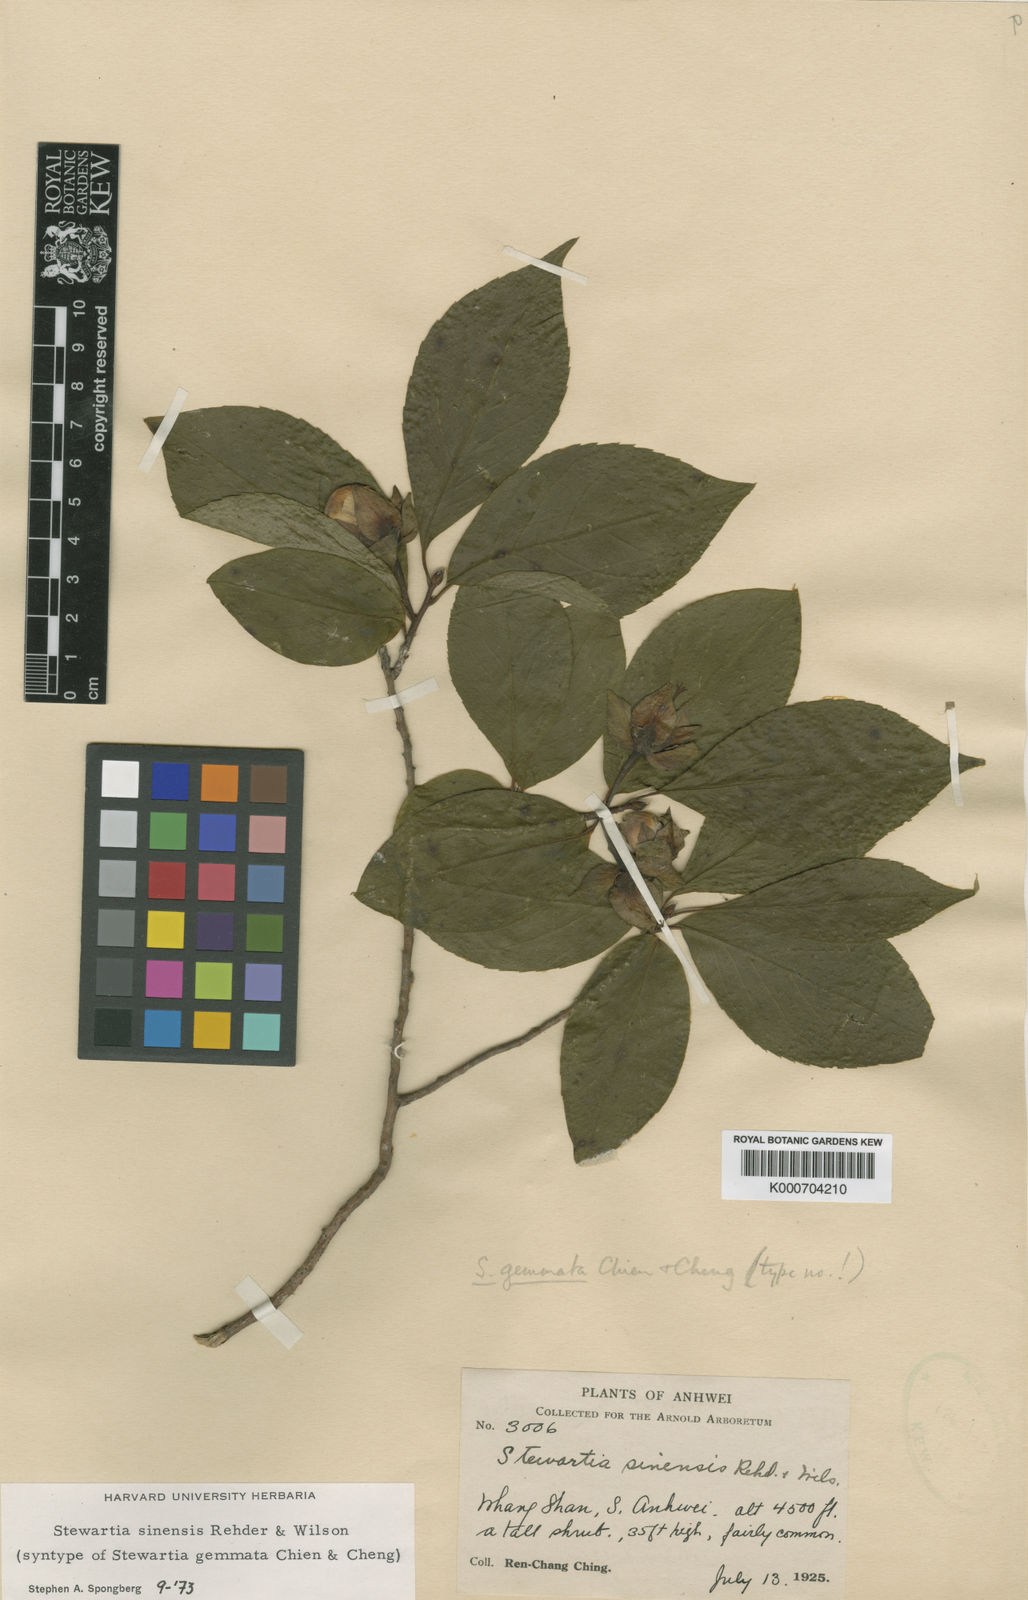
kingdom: Plantae
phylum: Tracheophyta
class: Magnoliopsida
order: Ericales
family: Theaceae
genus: Stewartia
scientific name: Stewartia sinensis
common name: Chinese stewartia
